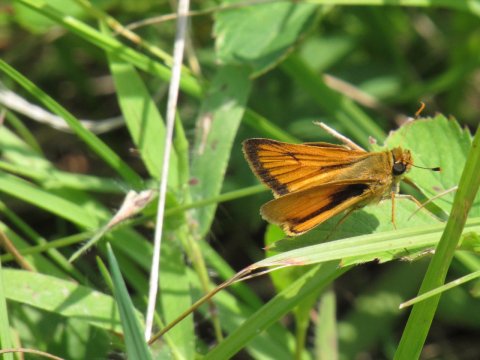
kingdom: Animalia
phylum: Arthropoda
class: Insecta
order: Lepidoptera
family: Hesperiidae
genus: Atrytone
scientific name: Atrytone delaware
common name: Delaware Skipper
